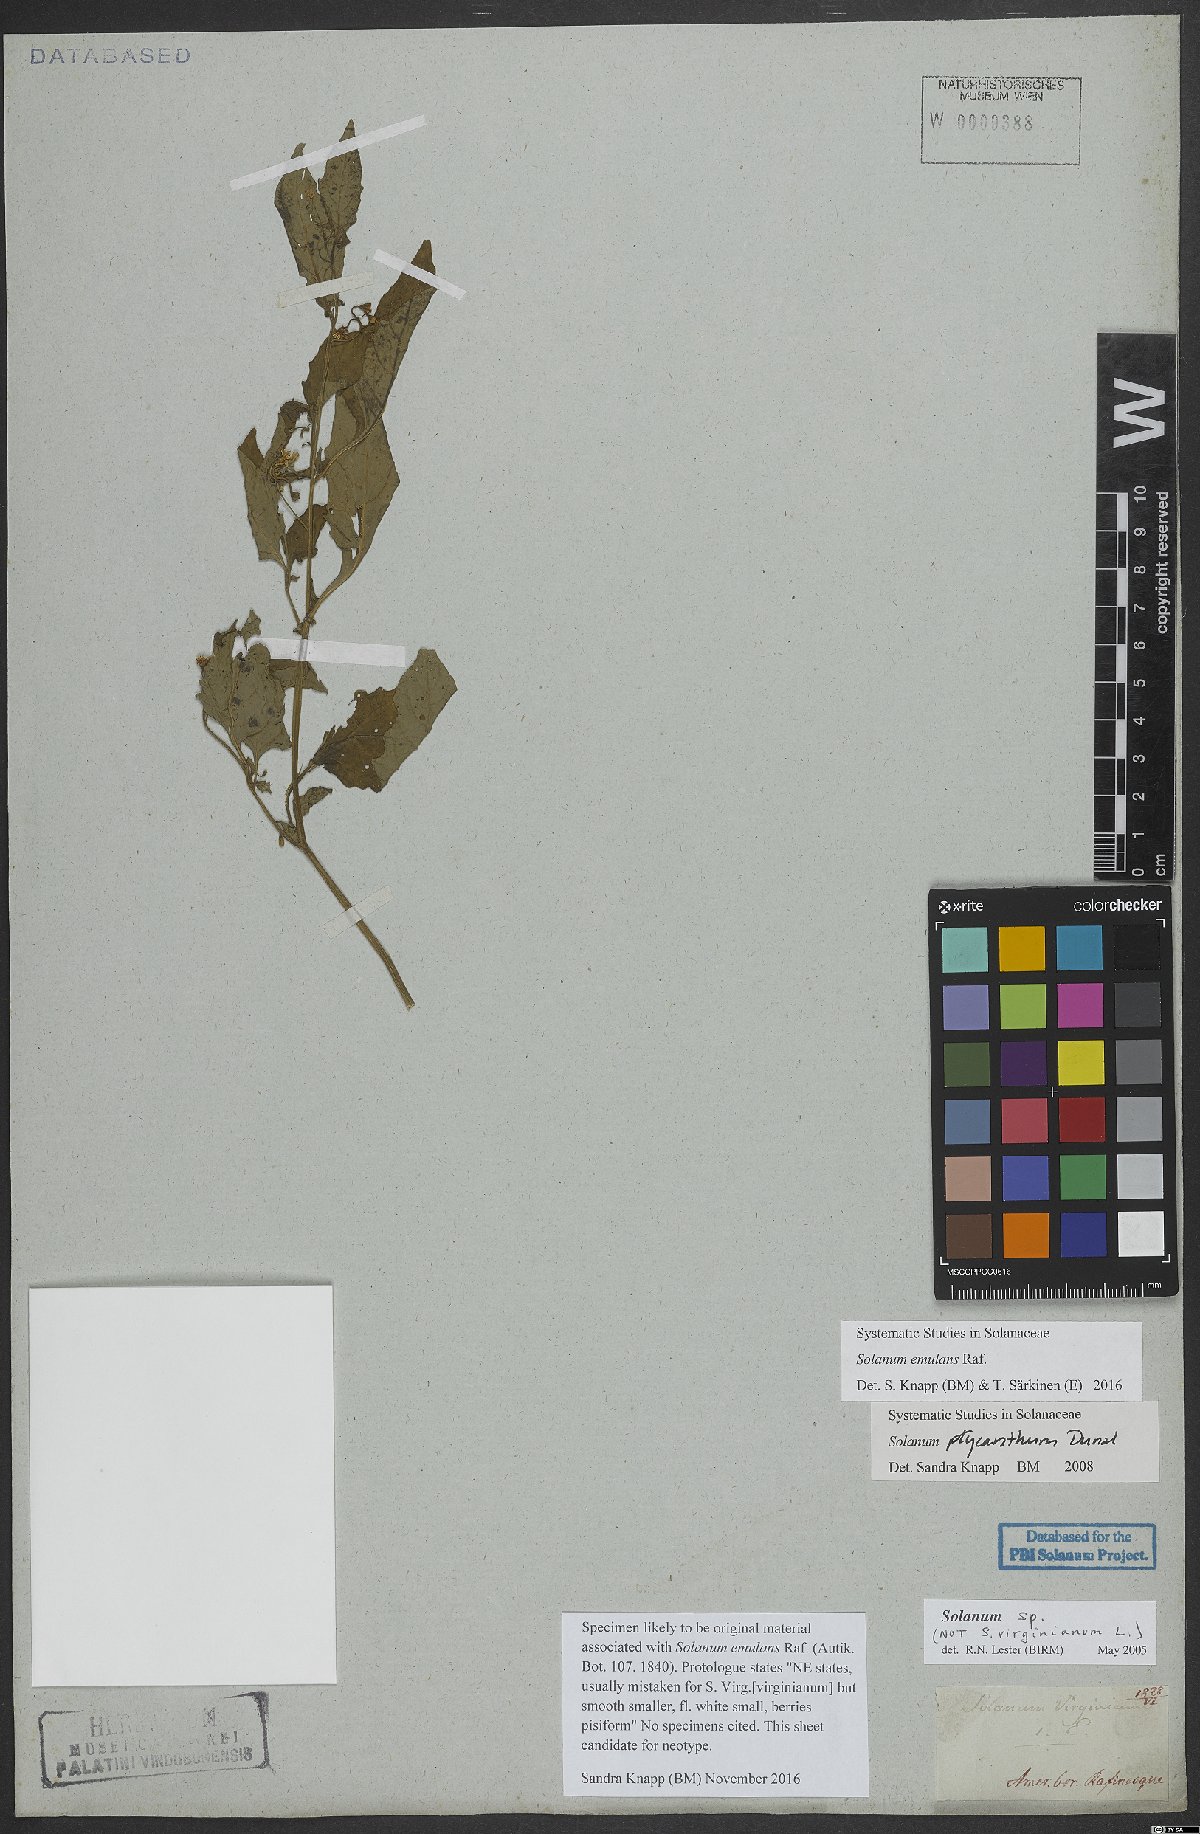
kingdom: Plantae
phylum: Tracheophyta
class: Magnoliopsida
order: Solanales
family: Solanaceae
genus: Solanum
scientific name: Solanum emulans
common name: Eastern black nightshade
